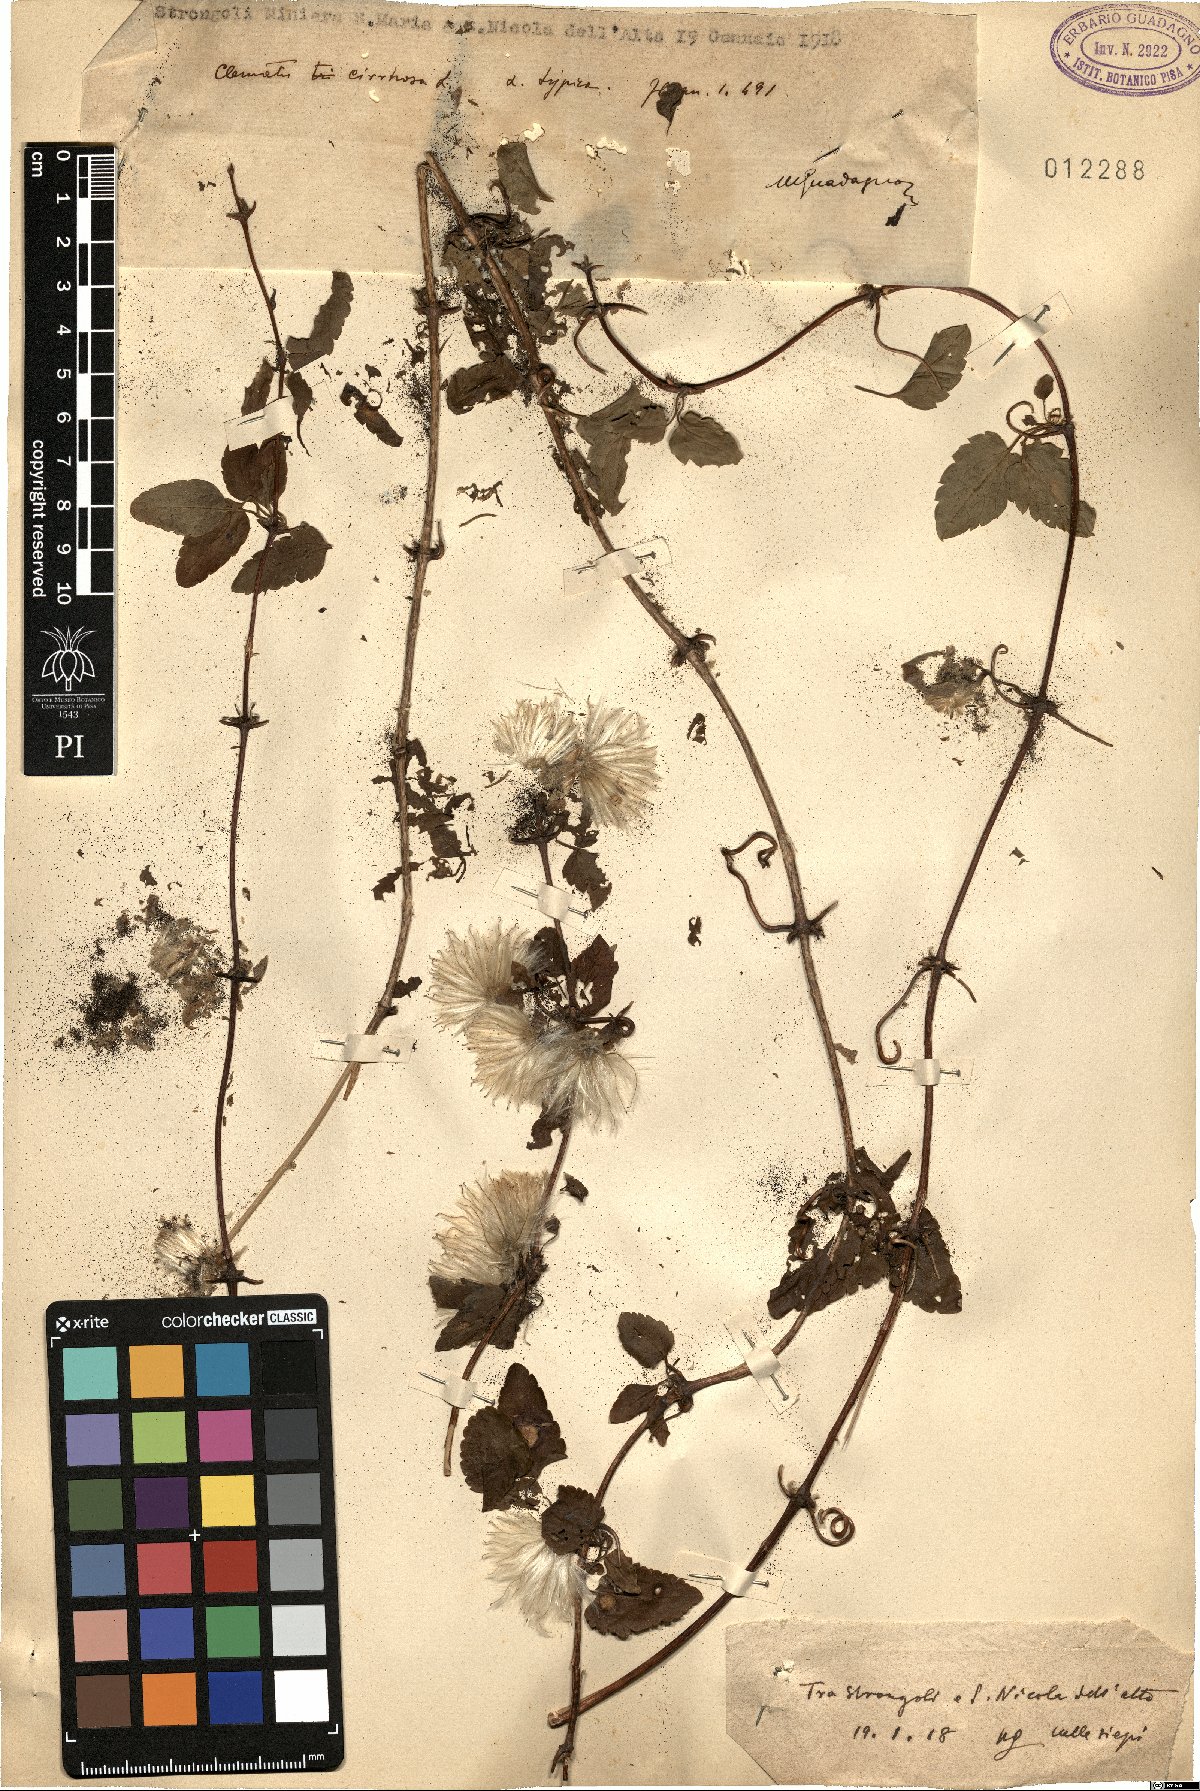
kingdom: Plantae
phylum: Tracheophyta
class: Magnoliopsida
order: Ranunculales
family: Ranunculaceae
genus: Clematis
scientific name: Clematis cirrhosa
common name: Early virgin's-bower
